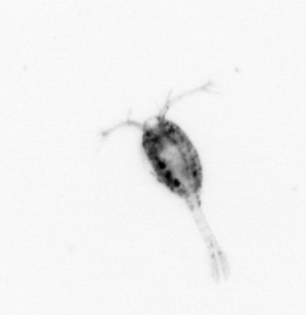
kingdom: Animalia
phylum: Arthropoda
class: Copepoda
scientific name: Copepoda
